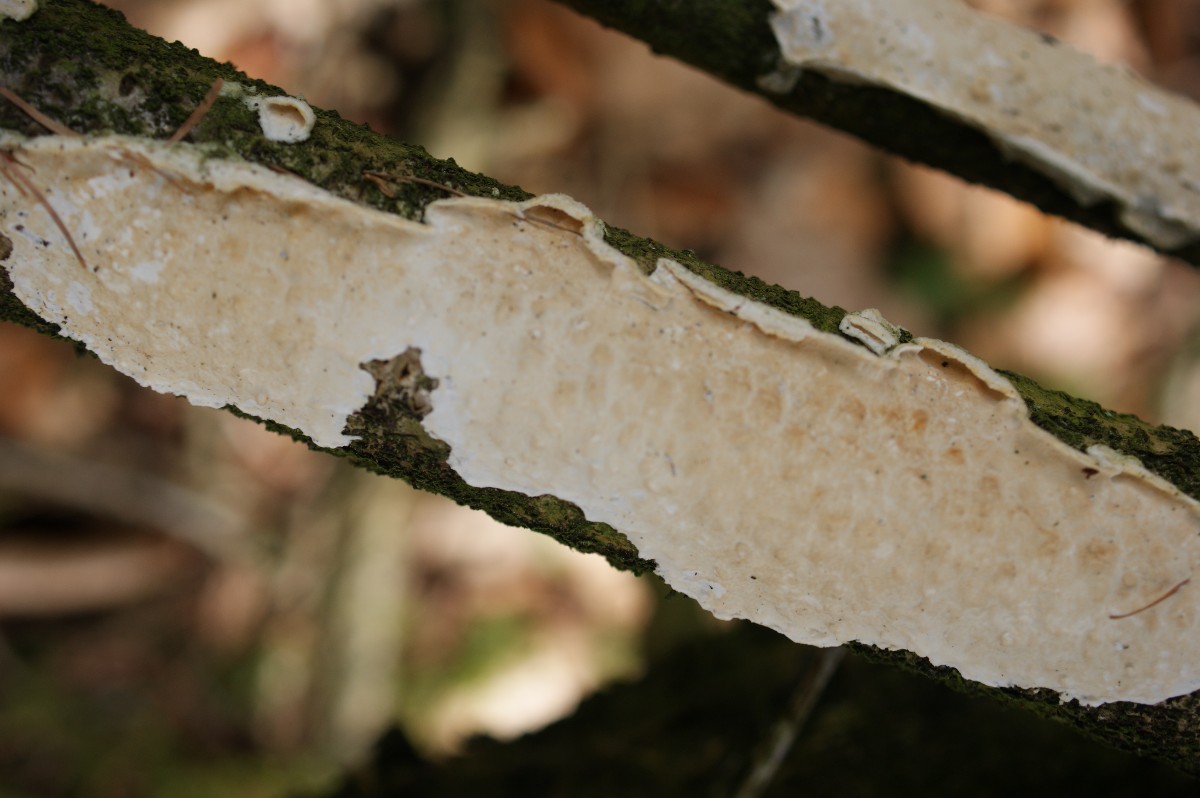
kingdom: Fungi
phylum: Basidiomycota
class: Agaricomycetes
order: Polyporales
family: Irpicaceae
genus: Byssomerulius
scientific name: Byssomerulius corium
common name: læder-åresvamp
